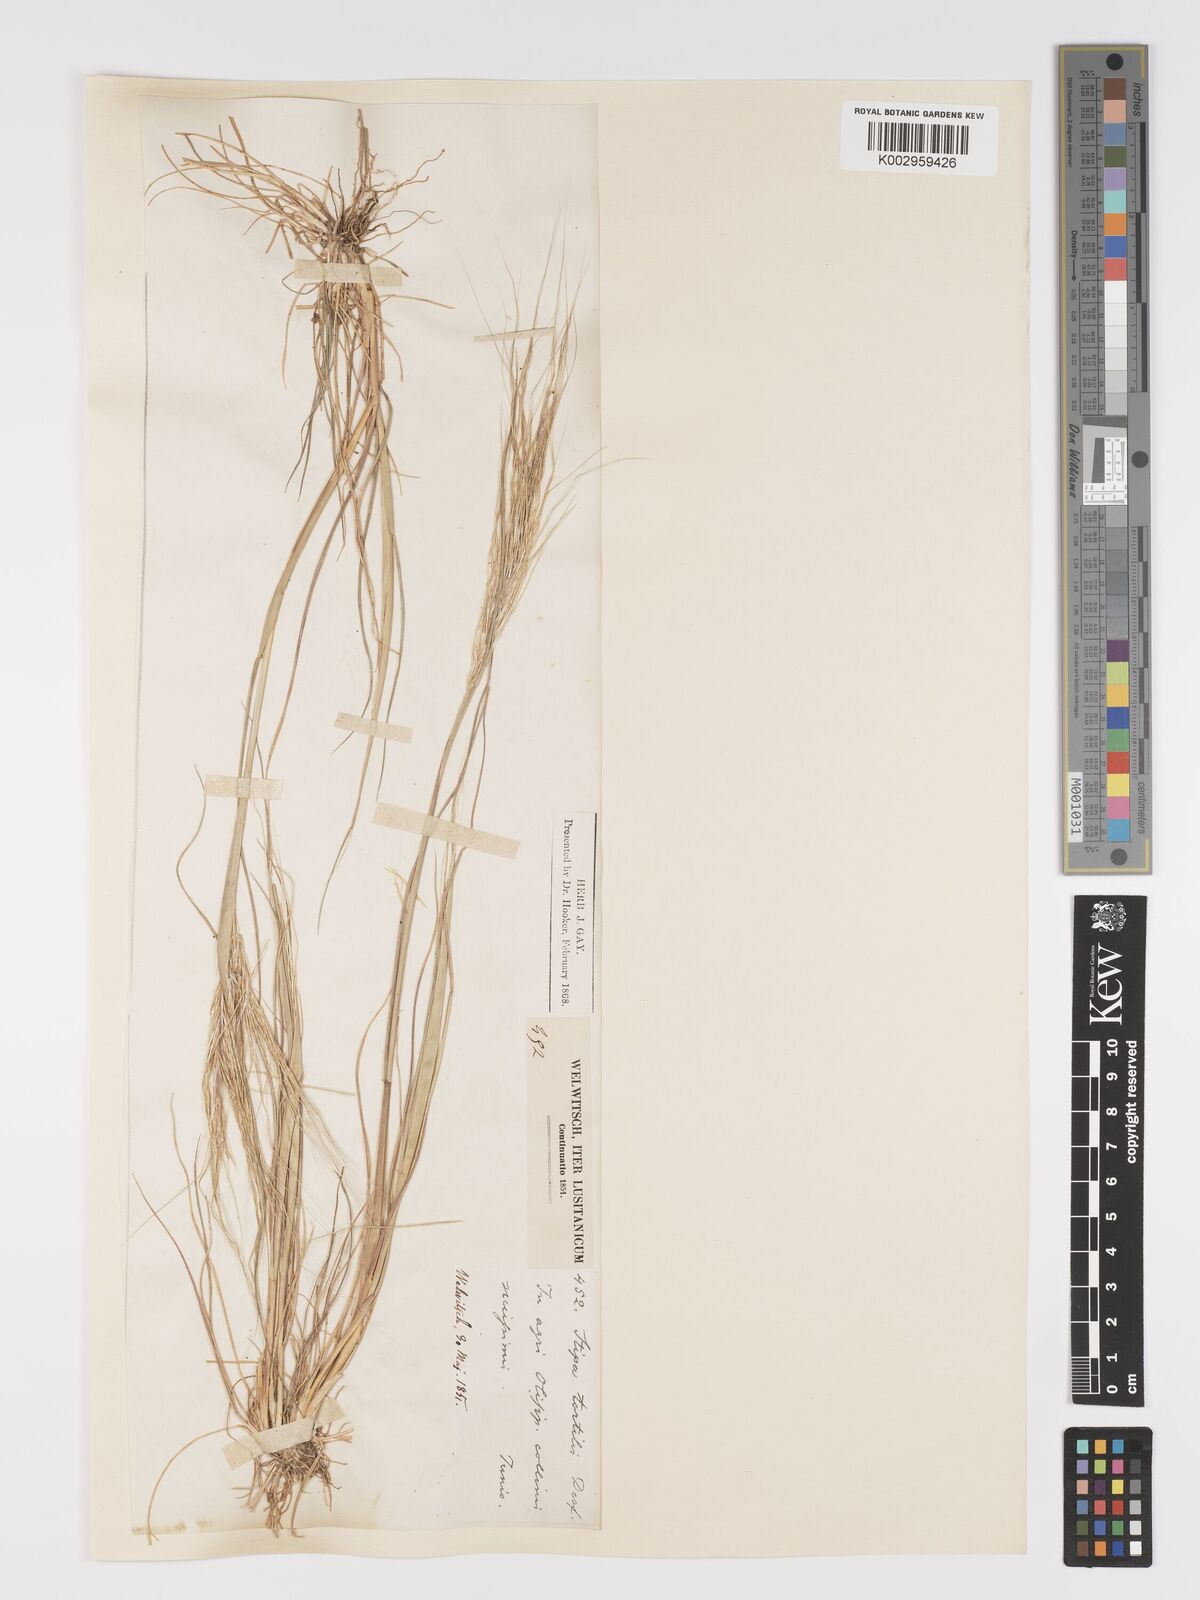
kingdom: Plantae
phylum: Tracheophyta
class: Liliopsida
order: Poales
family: Poaceae
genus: Stipa
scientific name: Stipa
